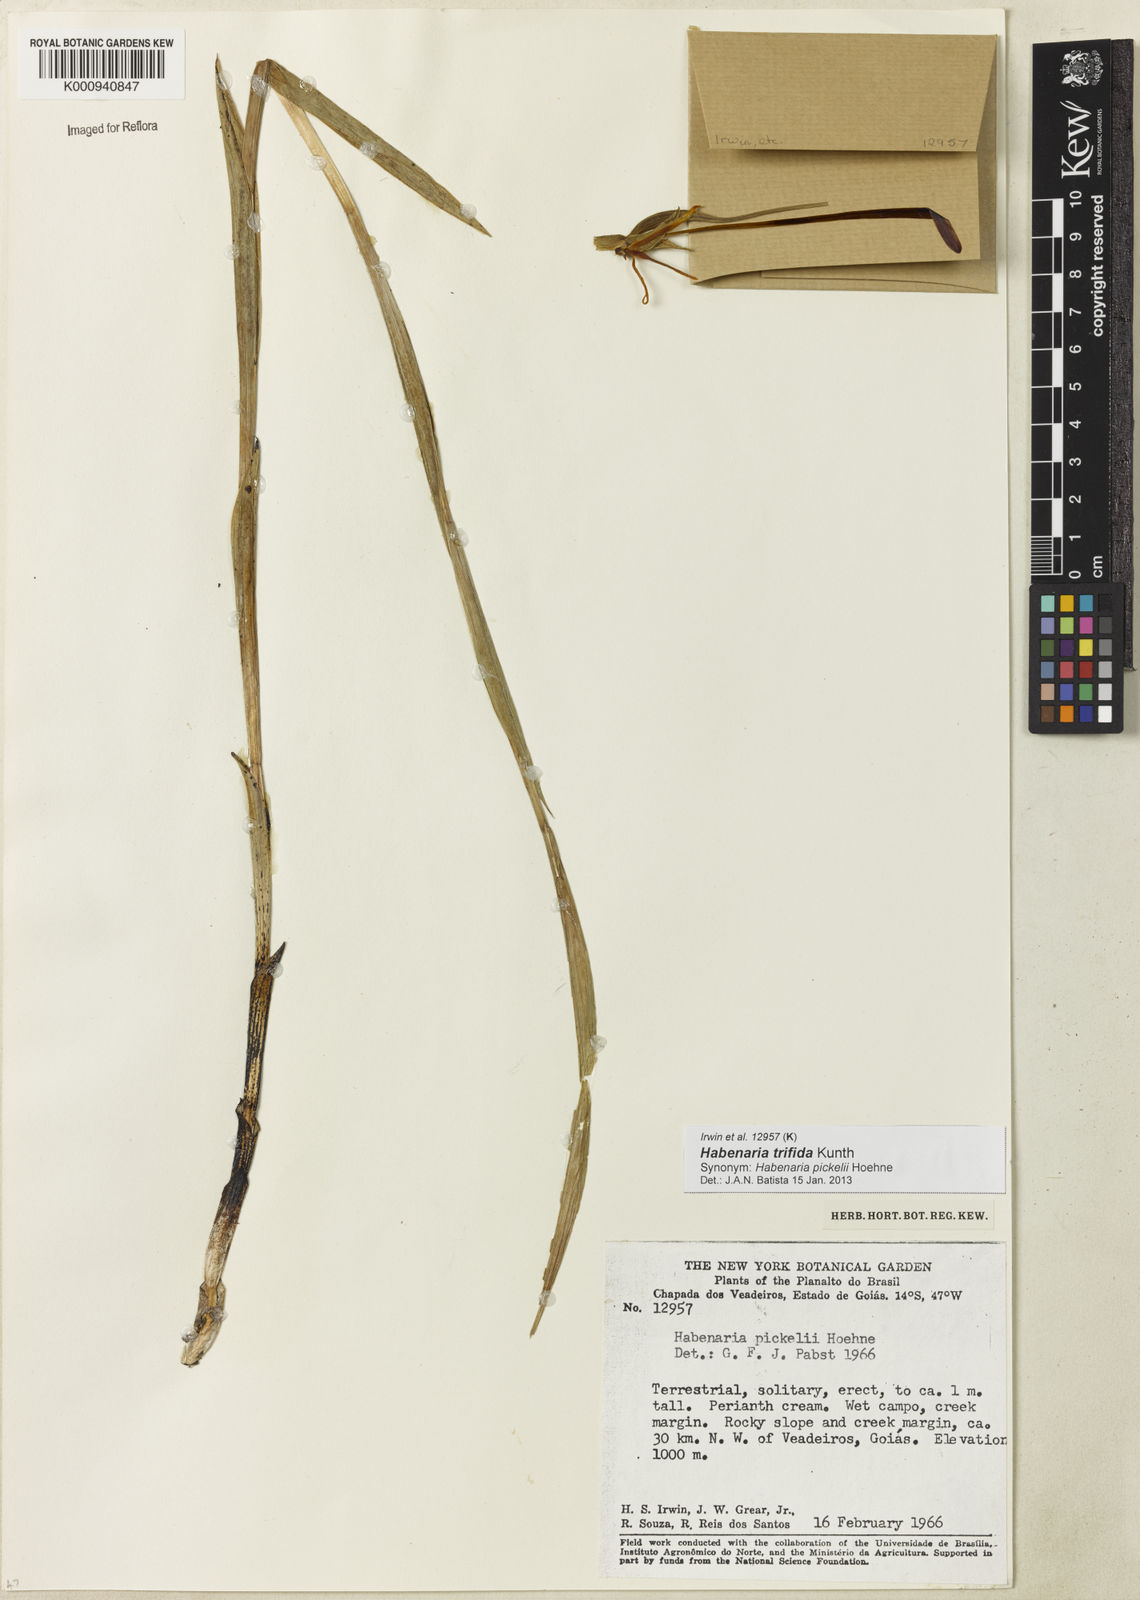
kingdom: Plantae
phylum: Tracheophyta
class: Liliopsida
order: Asparagales
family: Orchidaceae
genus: Habenaria
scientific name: Habenaria trifida
